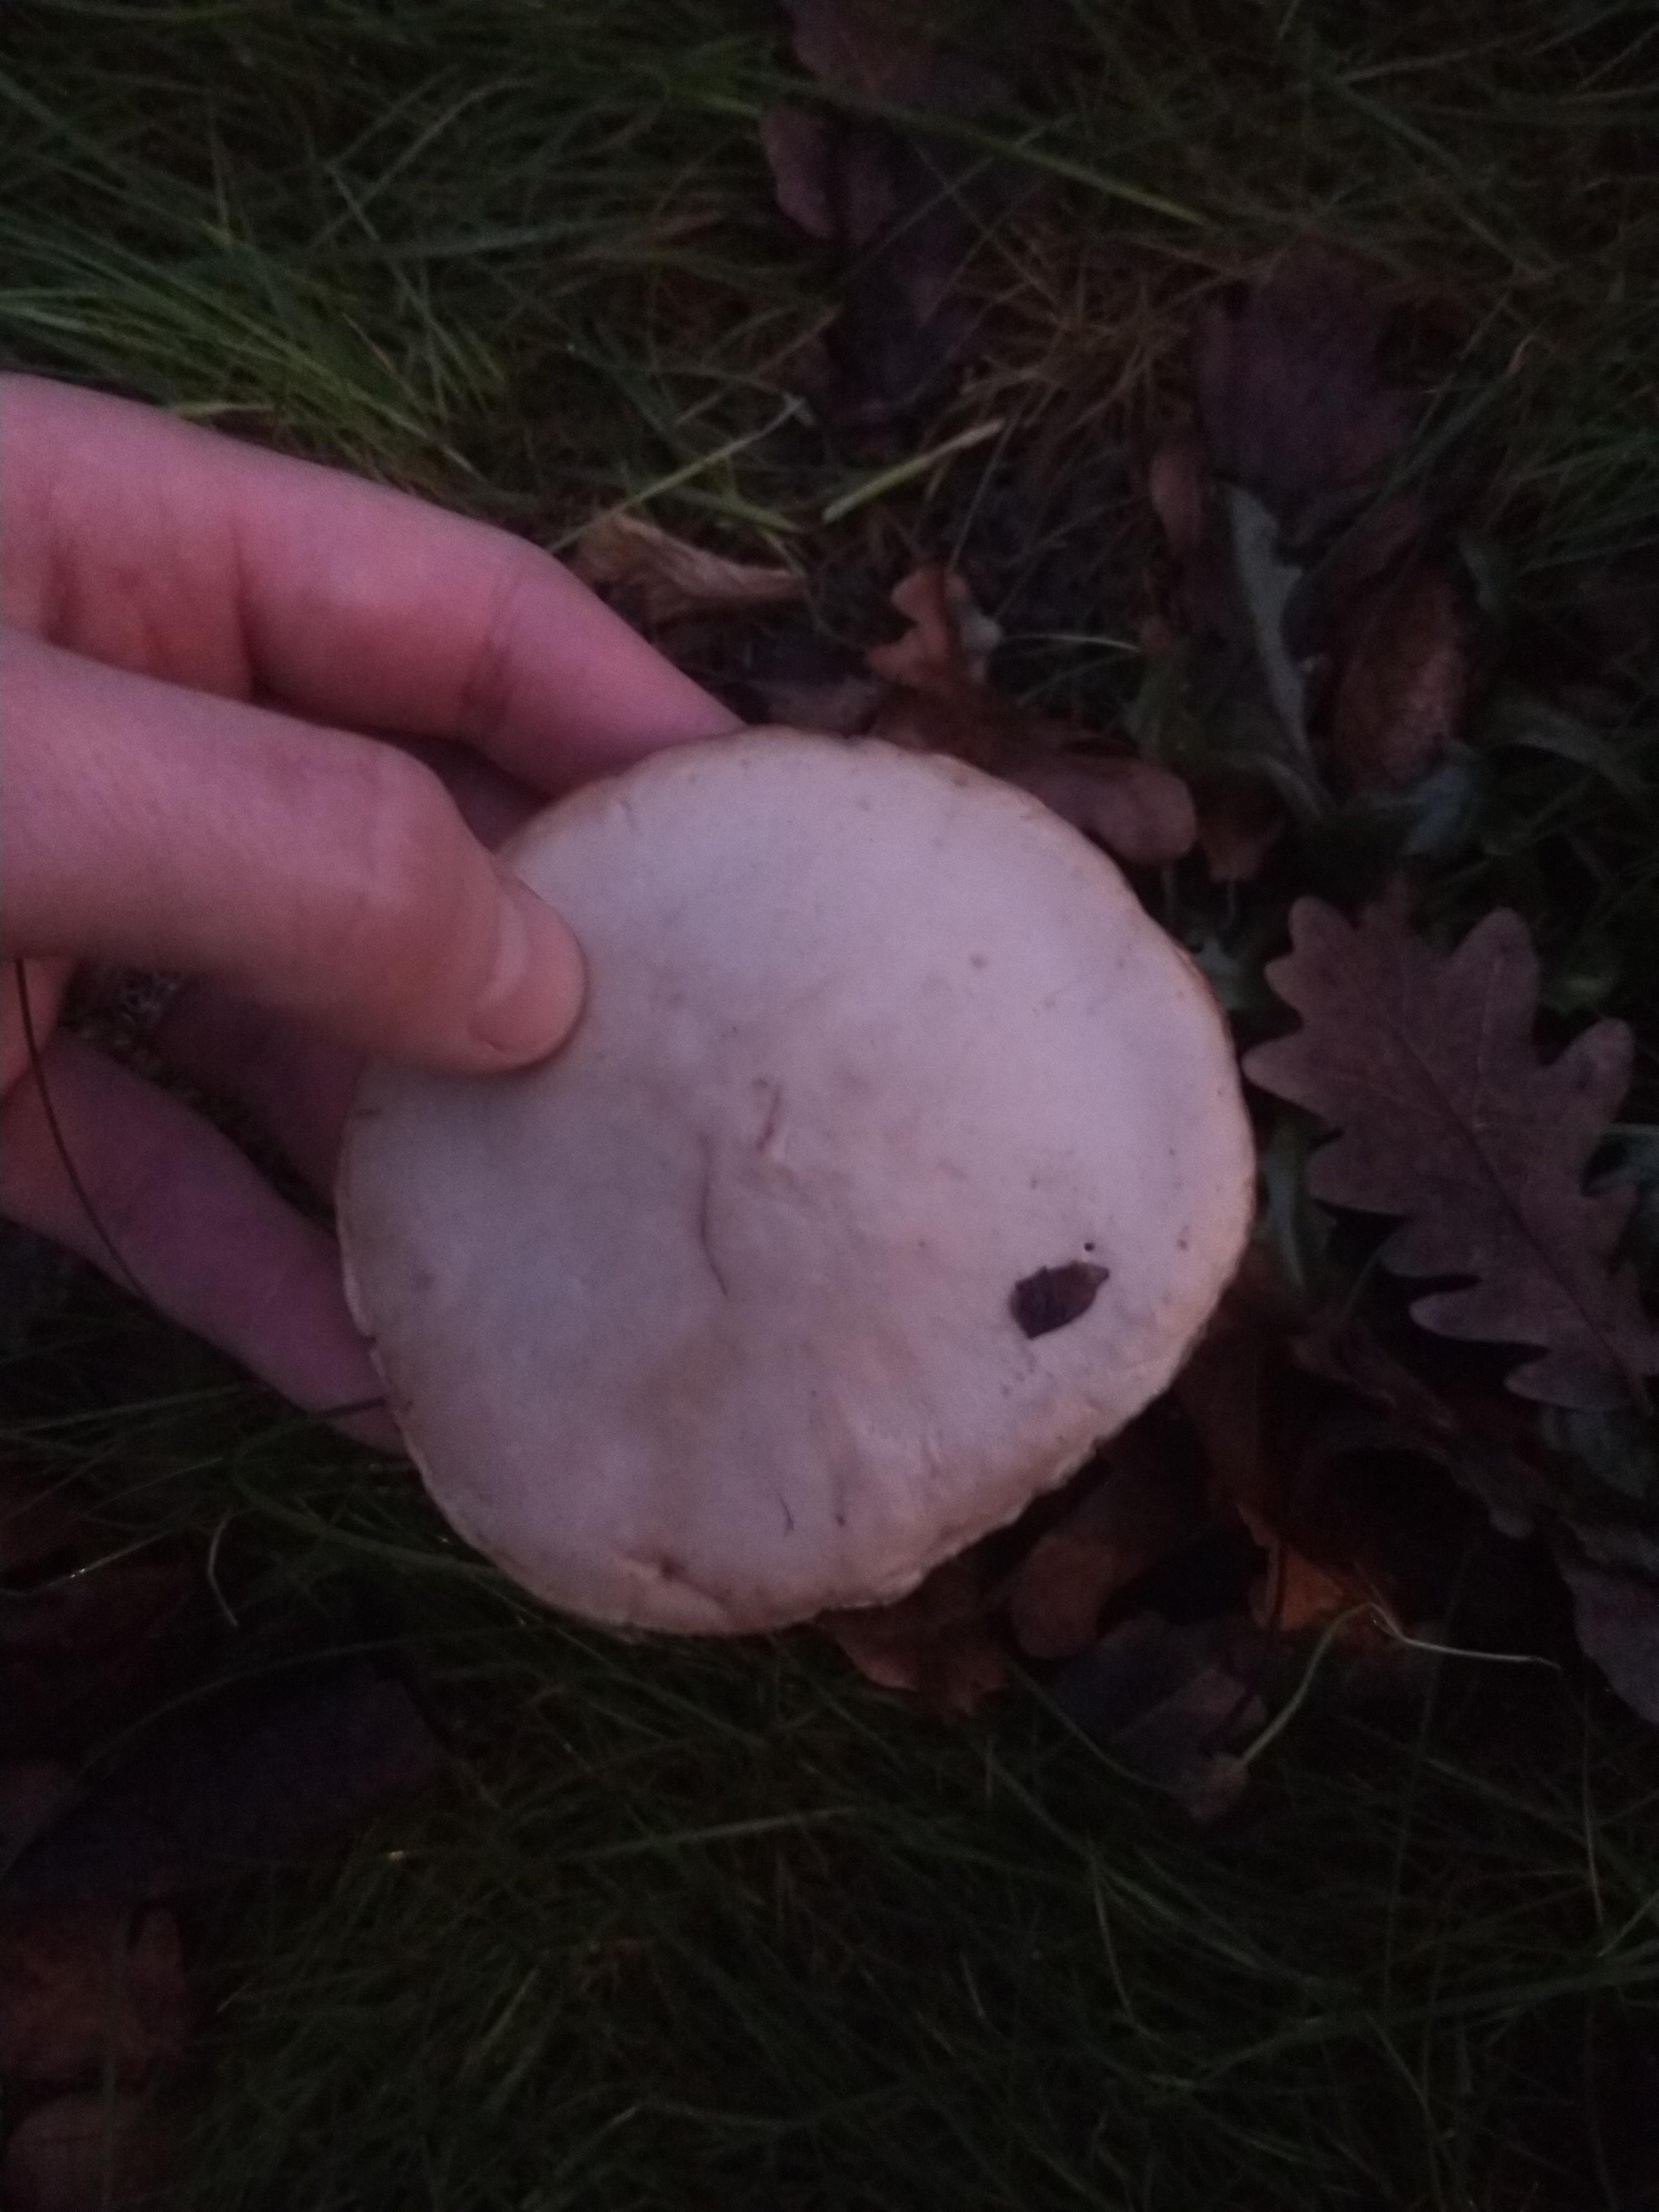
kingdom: Fungi
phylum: Basidiomycota
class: Agaricomycetes
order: Agaricales
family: Tricholomataceae
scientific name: Tricholomataceae
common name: ridderhatfamilien
